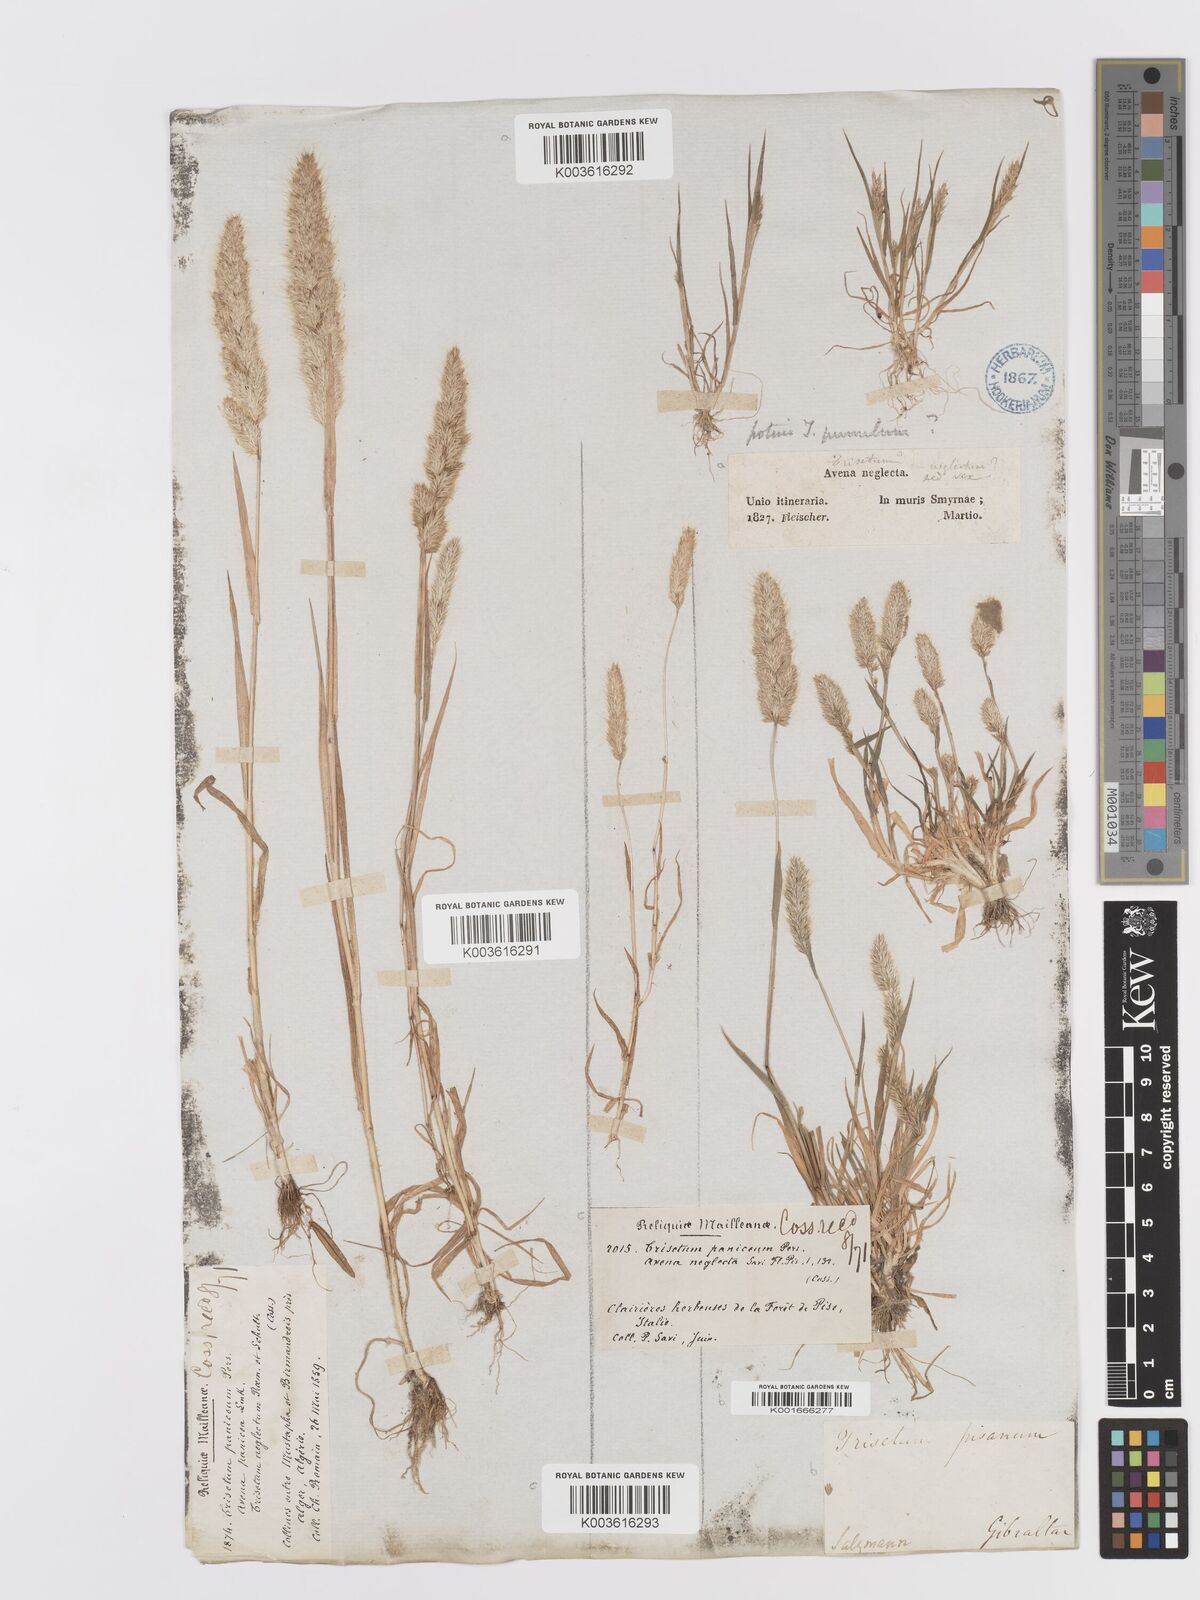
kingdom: Plantae
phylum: Tracheophyta
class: Liliopsida
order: Poales
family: Poaceae
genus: Trisetaria
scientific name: Trisetaria panicea
